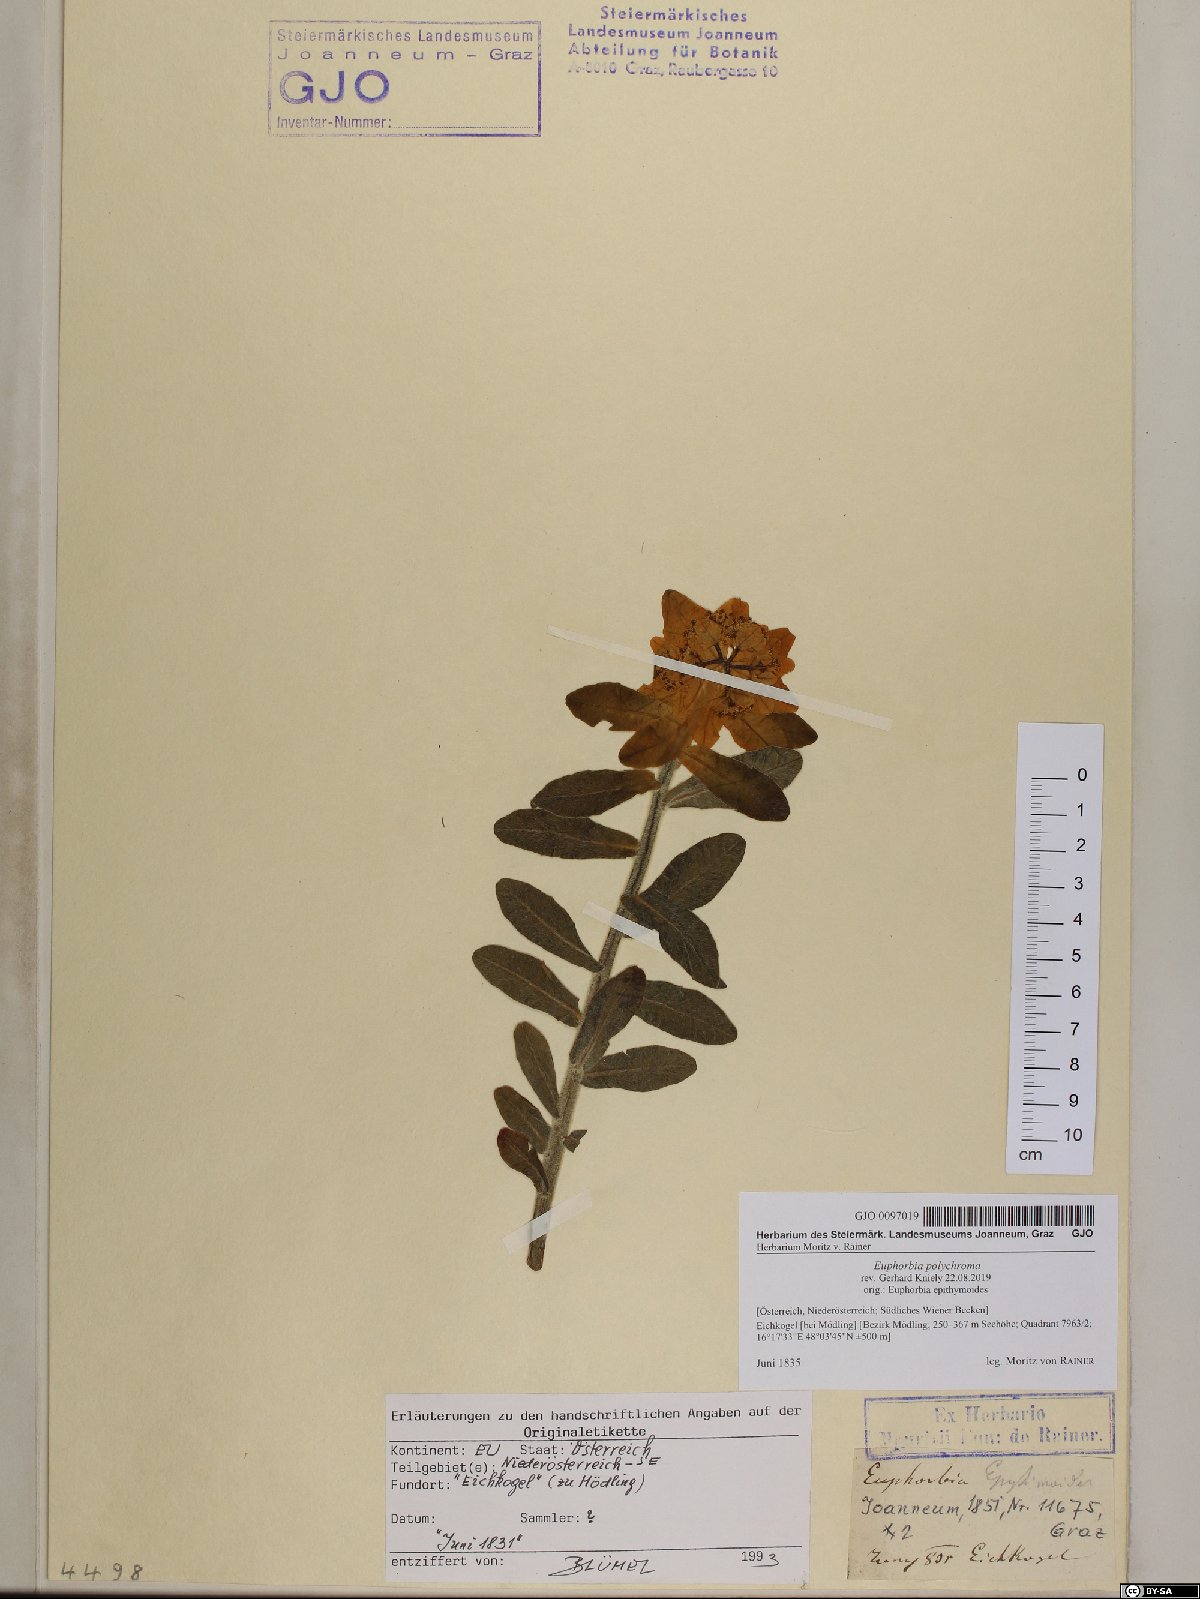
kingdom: Plantae
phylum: Tracheophyta
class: Magnoliopsida
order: Malpighiales
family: Euphorbiaceae
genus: Euphorbia
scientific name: Euphorbia epithymoides
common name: Cushion spurge
